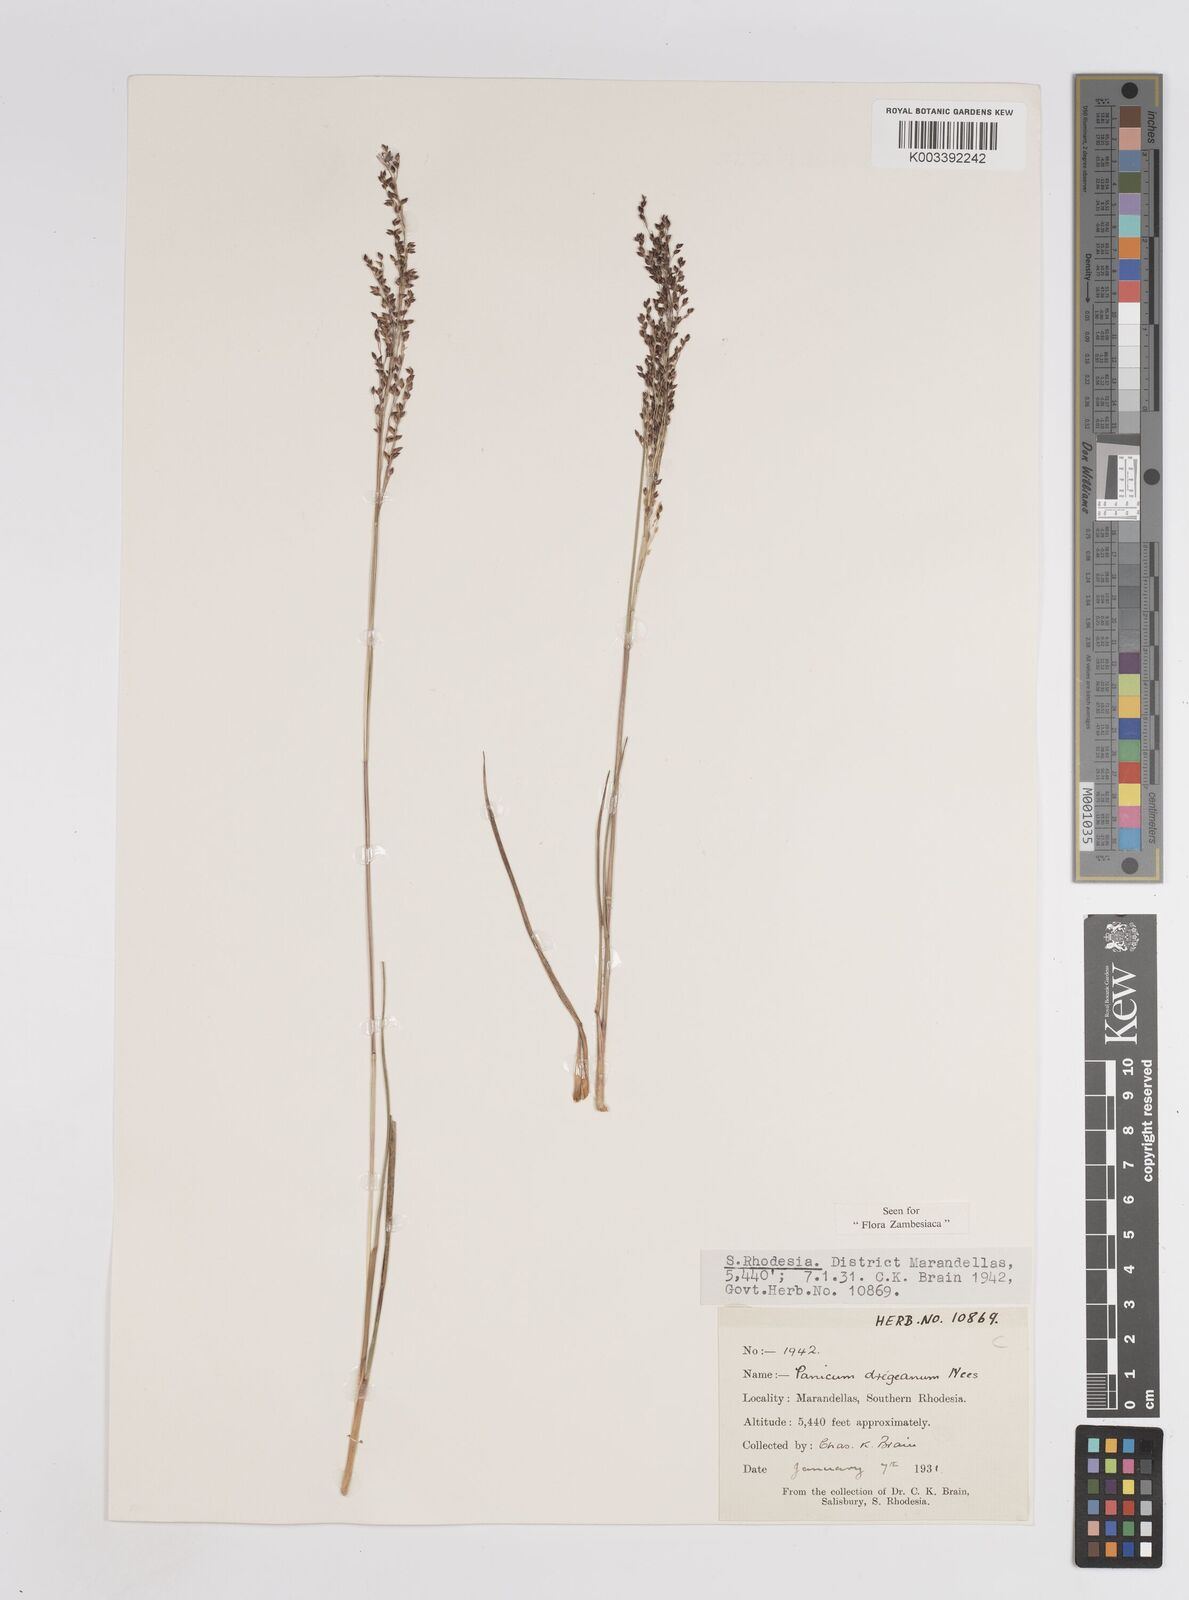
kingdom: Plantae
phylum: Tracheophyta
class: Liliopsida
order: Poales
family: Poaceae
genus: Panicum
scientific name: Panicum dregeanum
